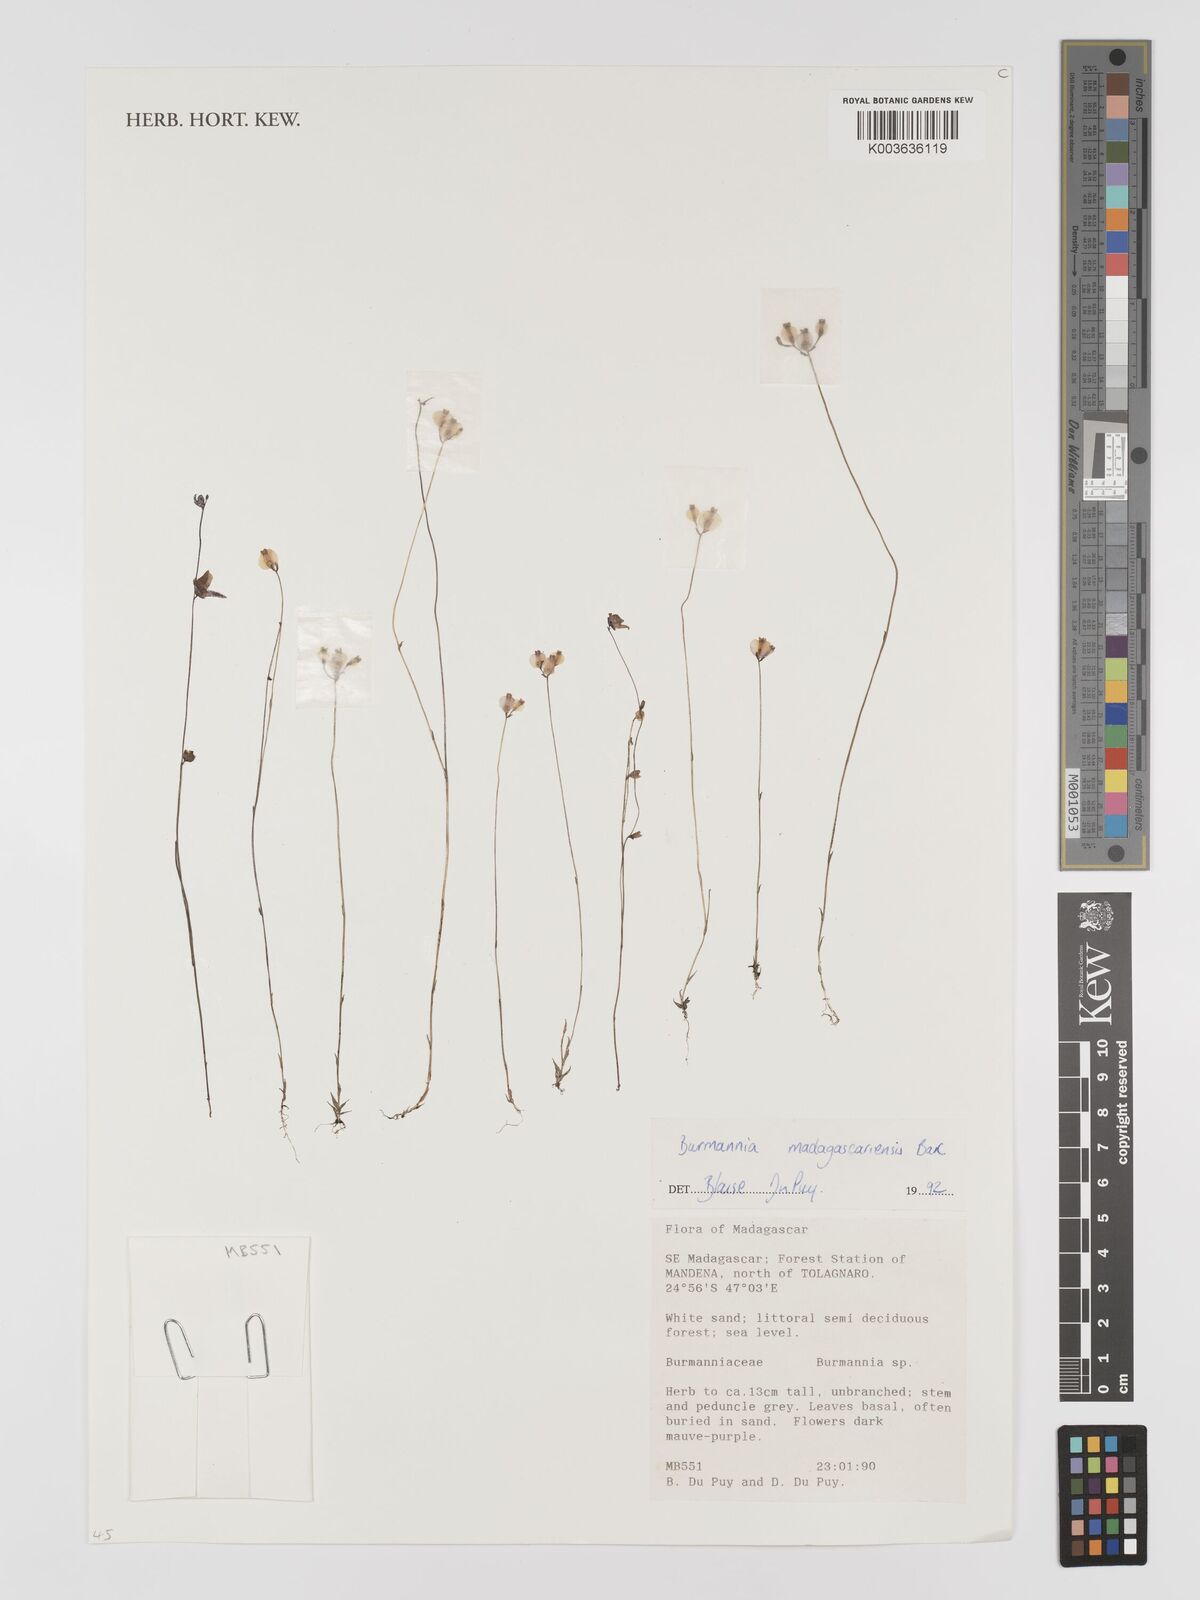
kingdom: Plantae
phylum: Tracheophyta
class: Liliopsida
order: Dioscoreales
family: Burmanniaceae
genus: Burmannia
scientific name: Burmannia madagascariensis
